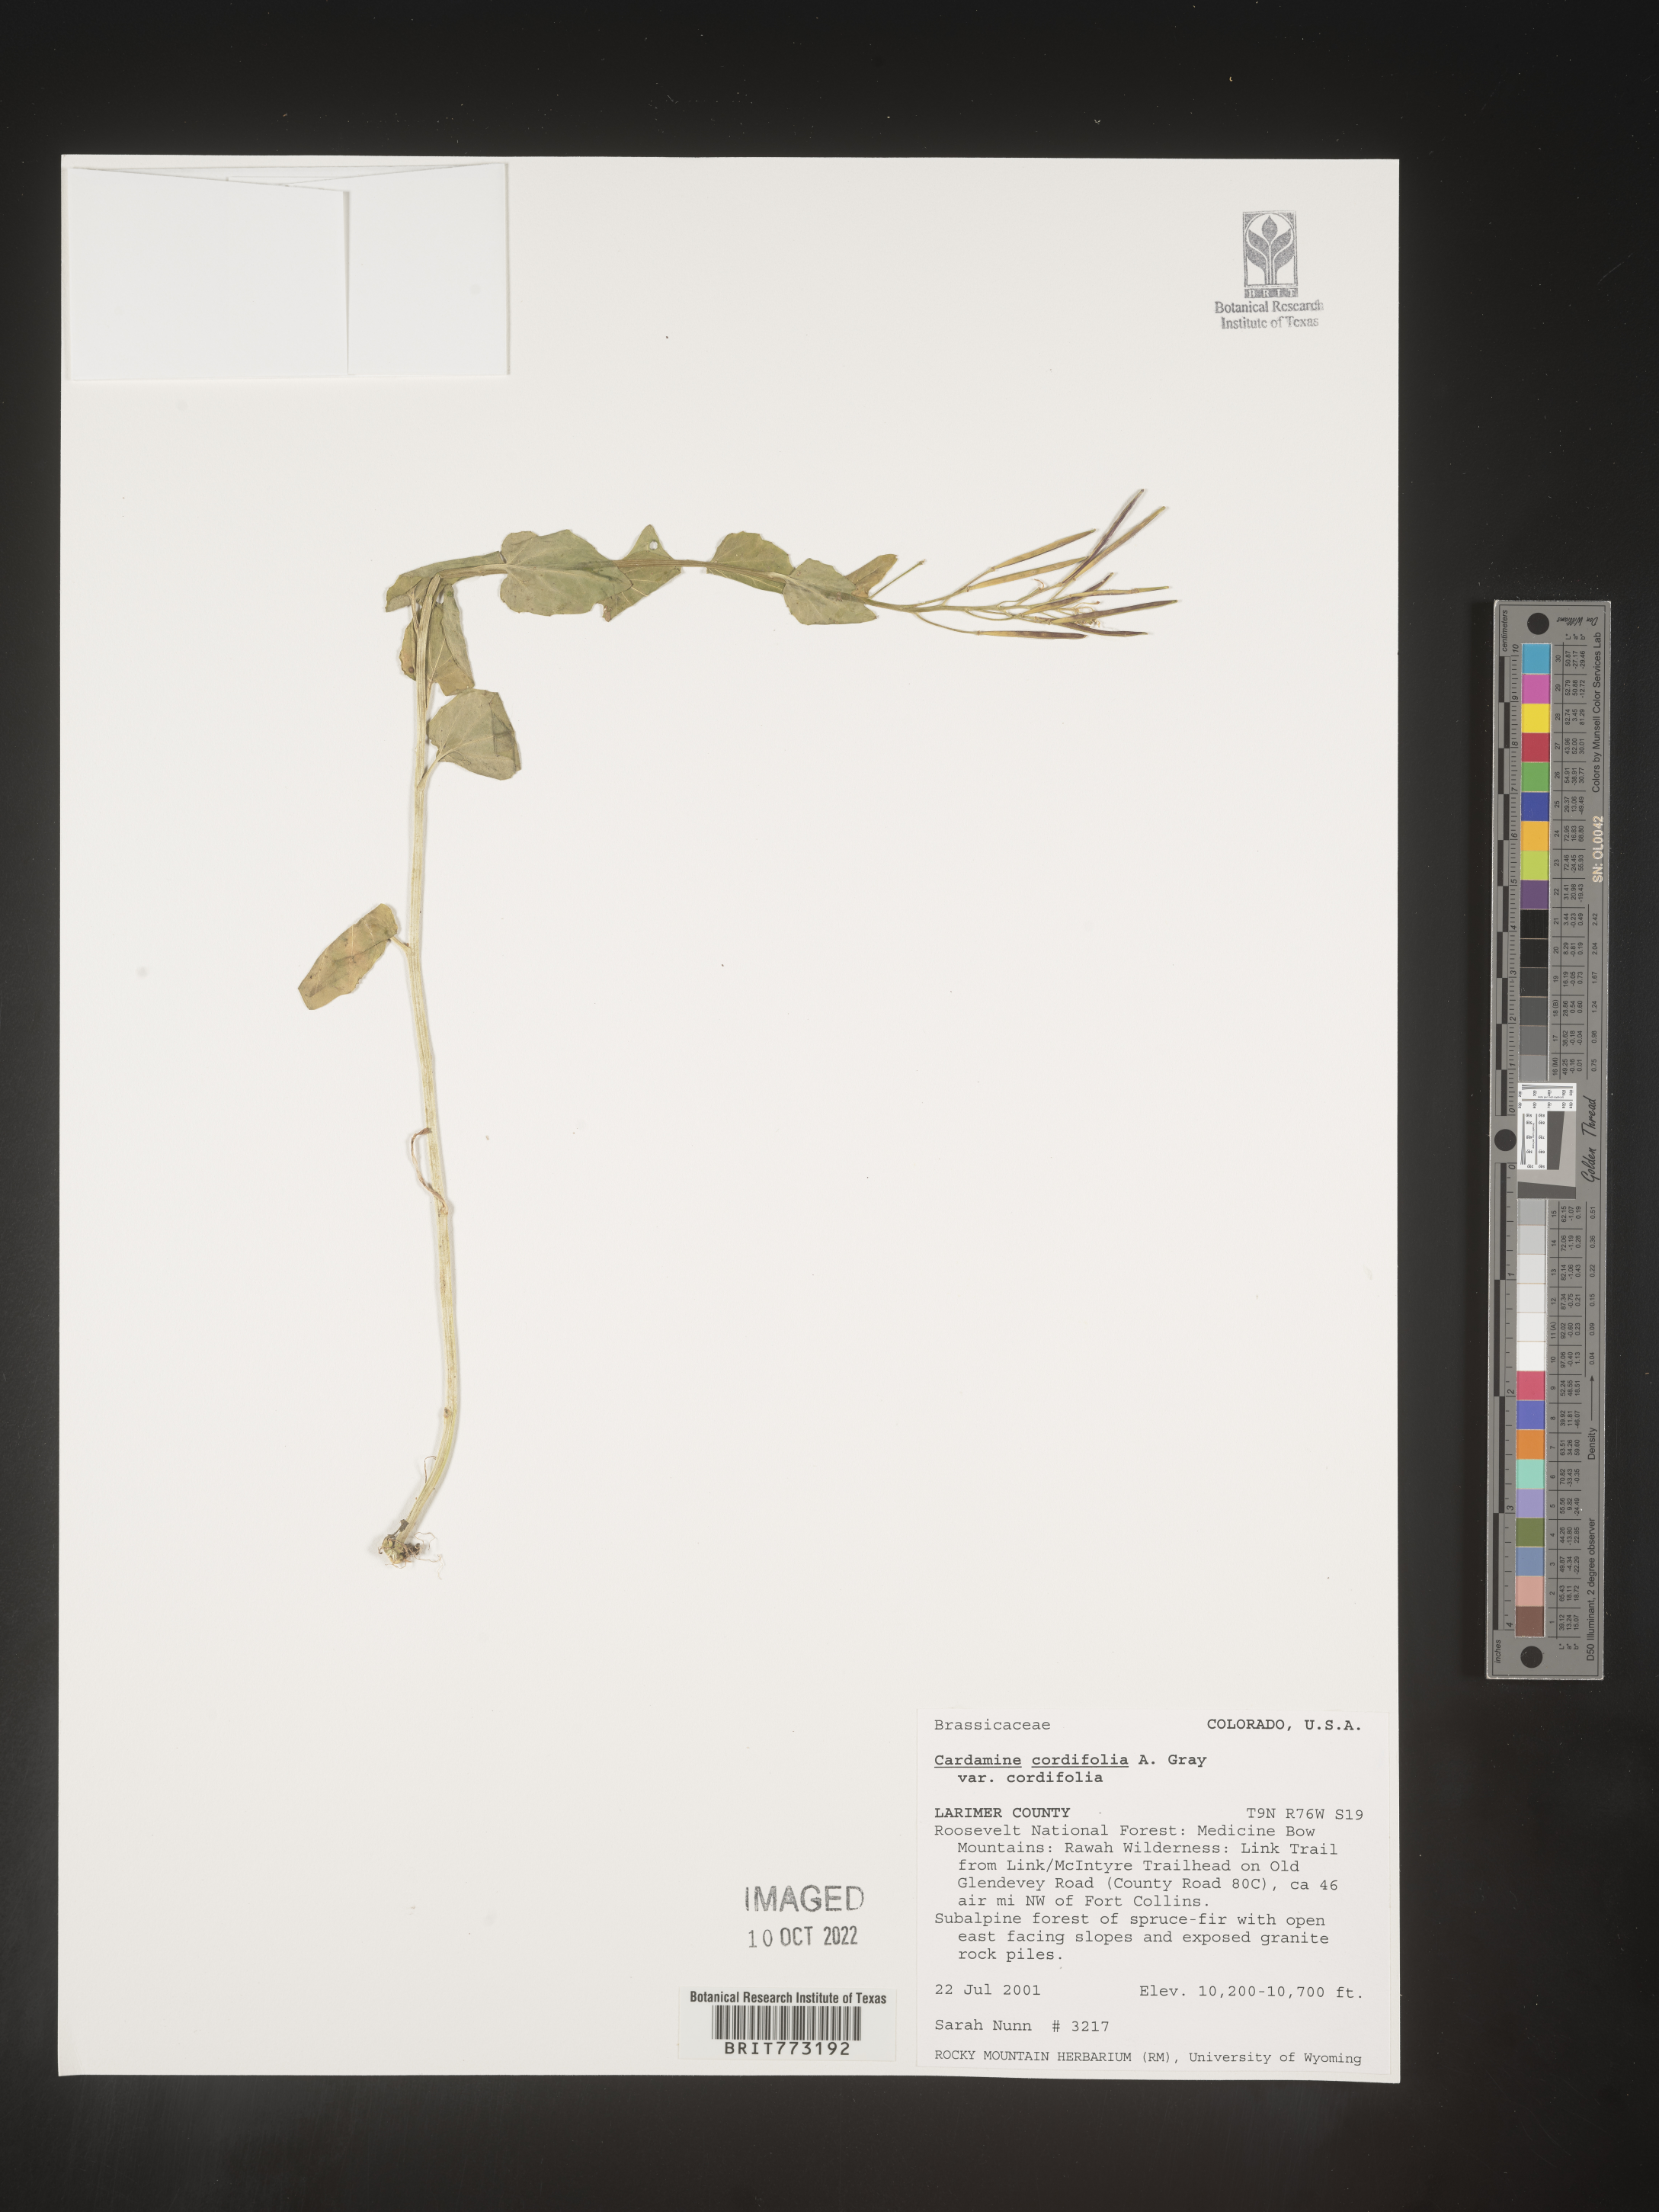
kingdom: Plantae
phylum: Tracheophyta
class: Magnoliopsida
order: Brassicales
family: Brassicaceae
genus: Cardamine
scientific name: Cardamine
